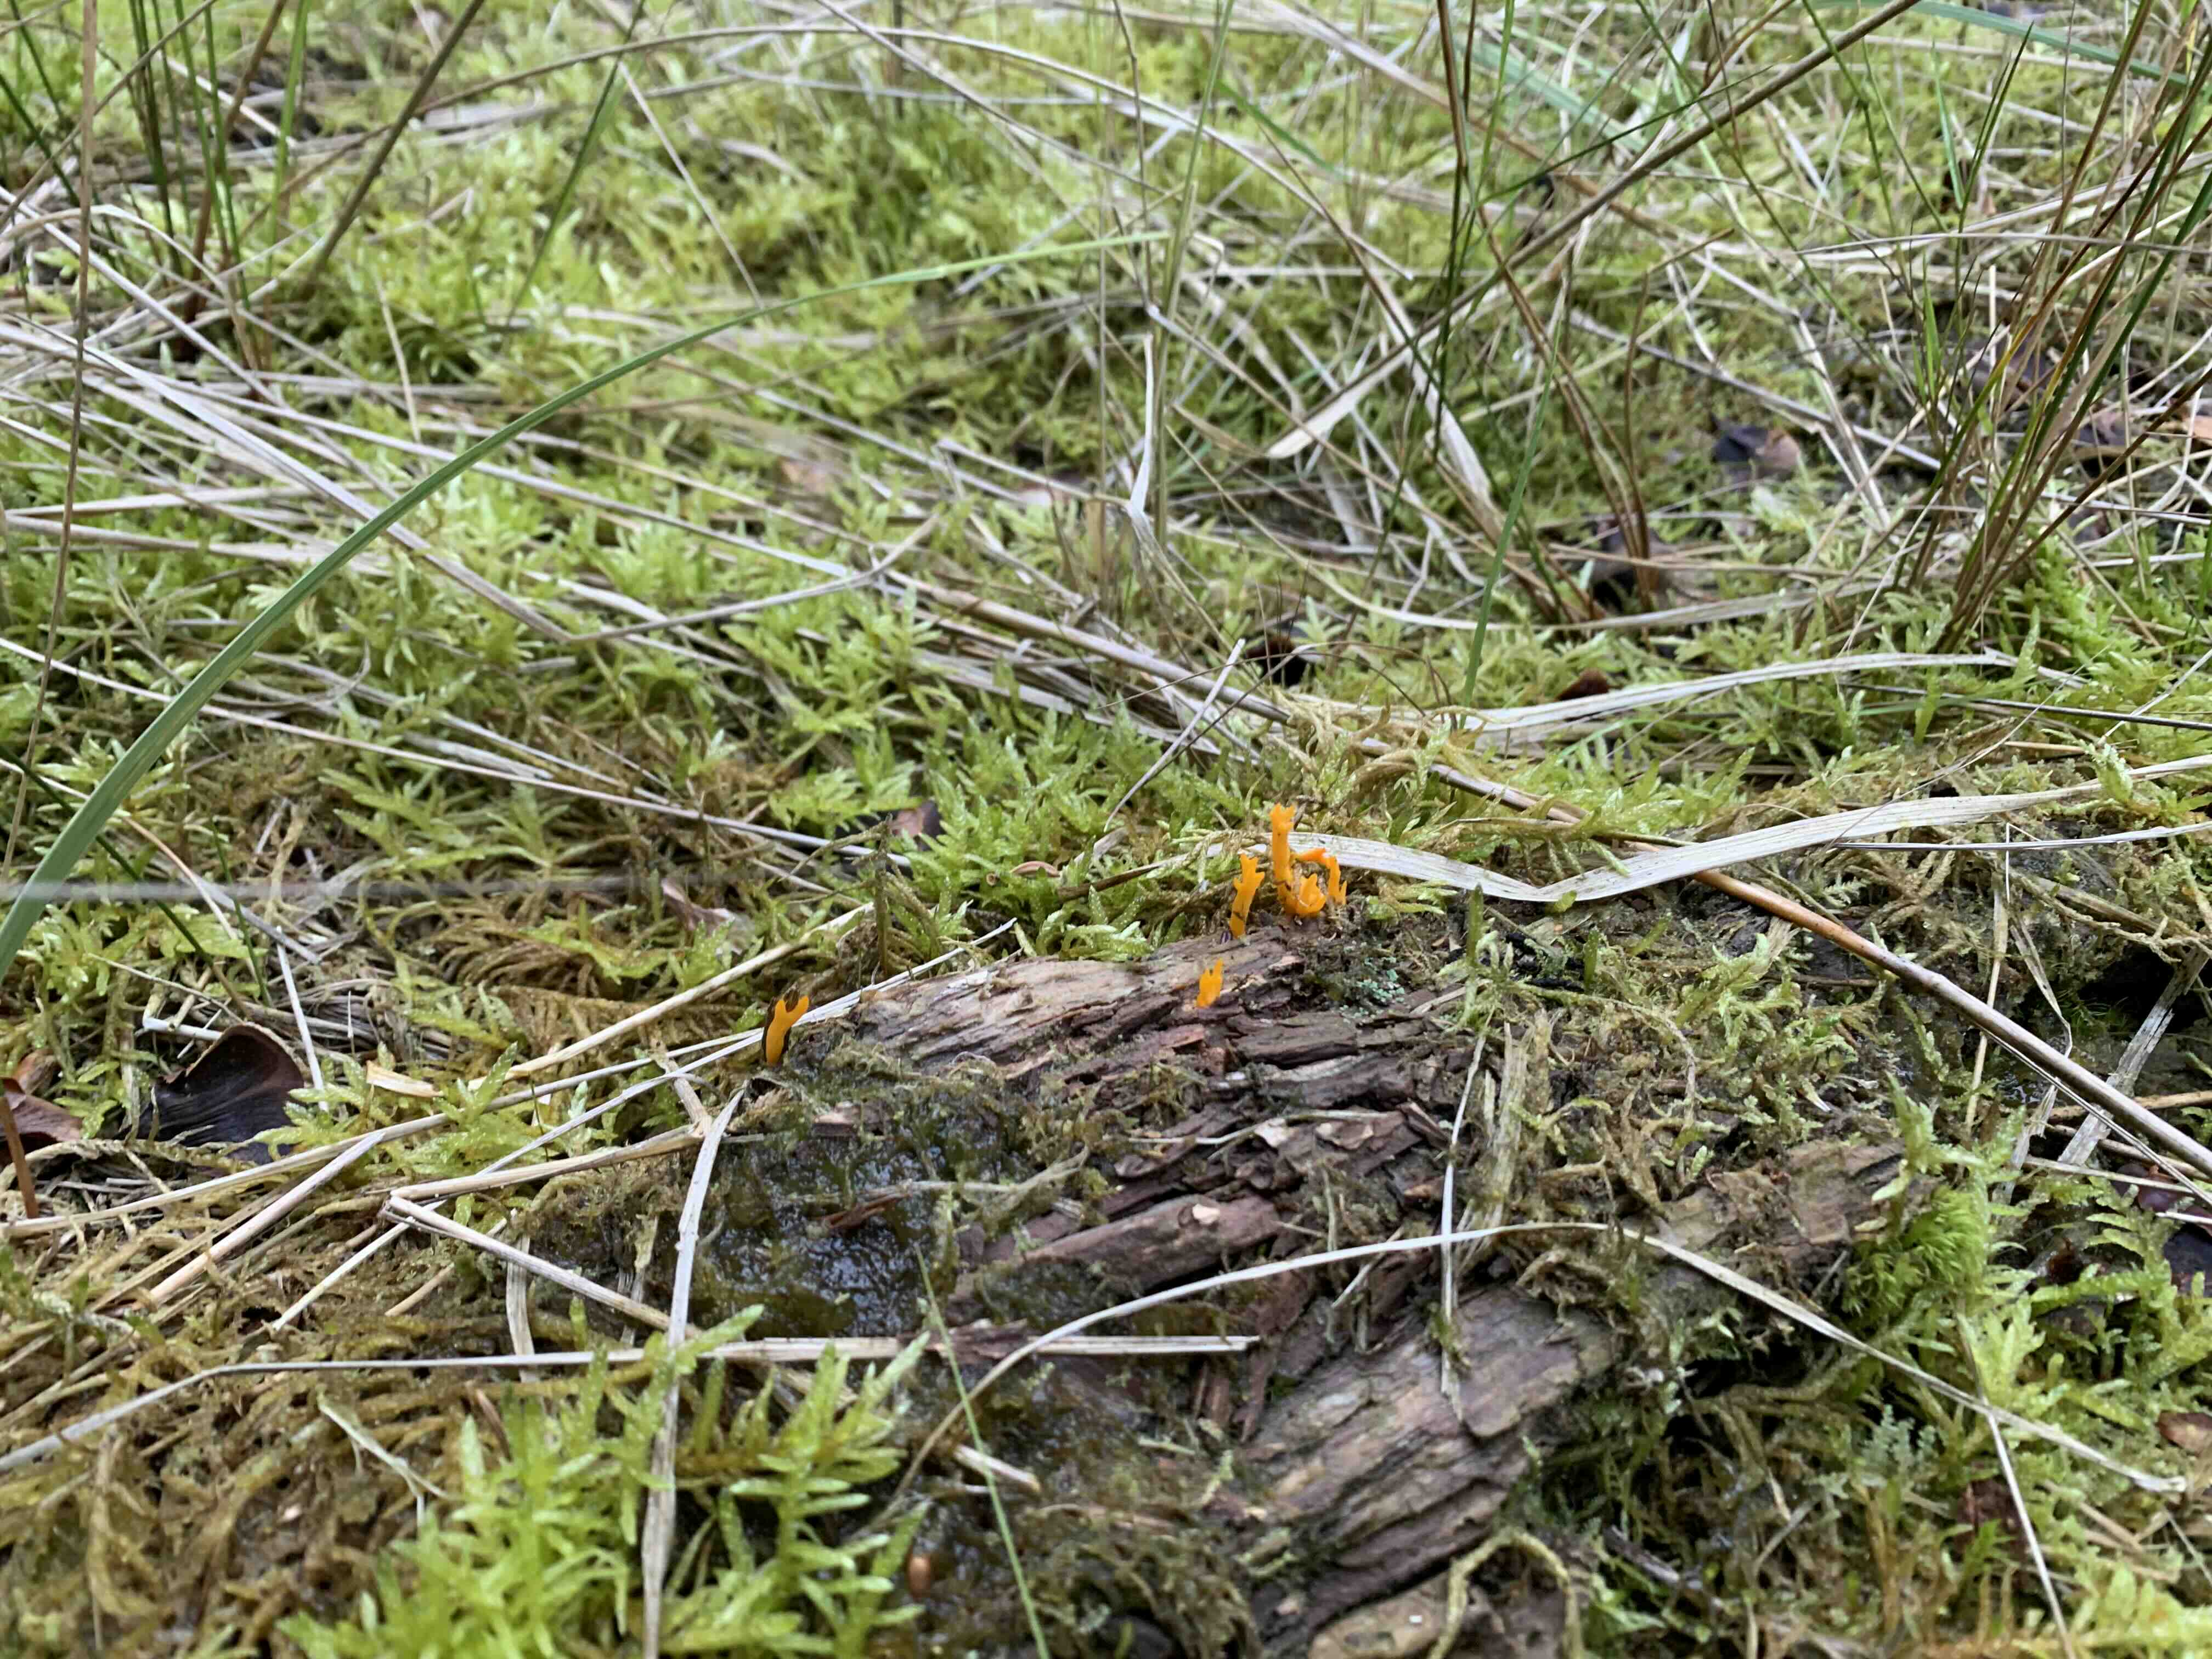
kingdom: Fungi
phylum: Basidiomycota
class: Dacrymycetes
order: Dacrymycetales
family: Dacrymycetaceae
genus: Calocera
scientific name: Calocera viscosa
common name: almindelig guldgaffel
